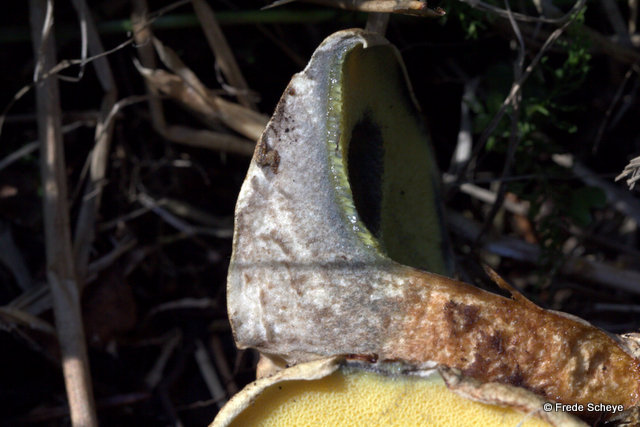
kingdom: Fungi
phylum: Basidiomycota
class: Agaricomycetes
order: Boletales
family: Paxillaceae
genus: Gyrodon
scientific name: Gyrodon lividus
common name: ellerørhat
